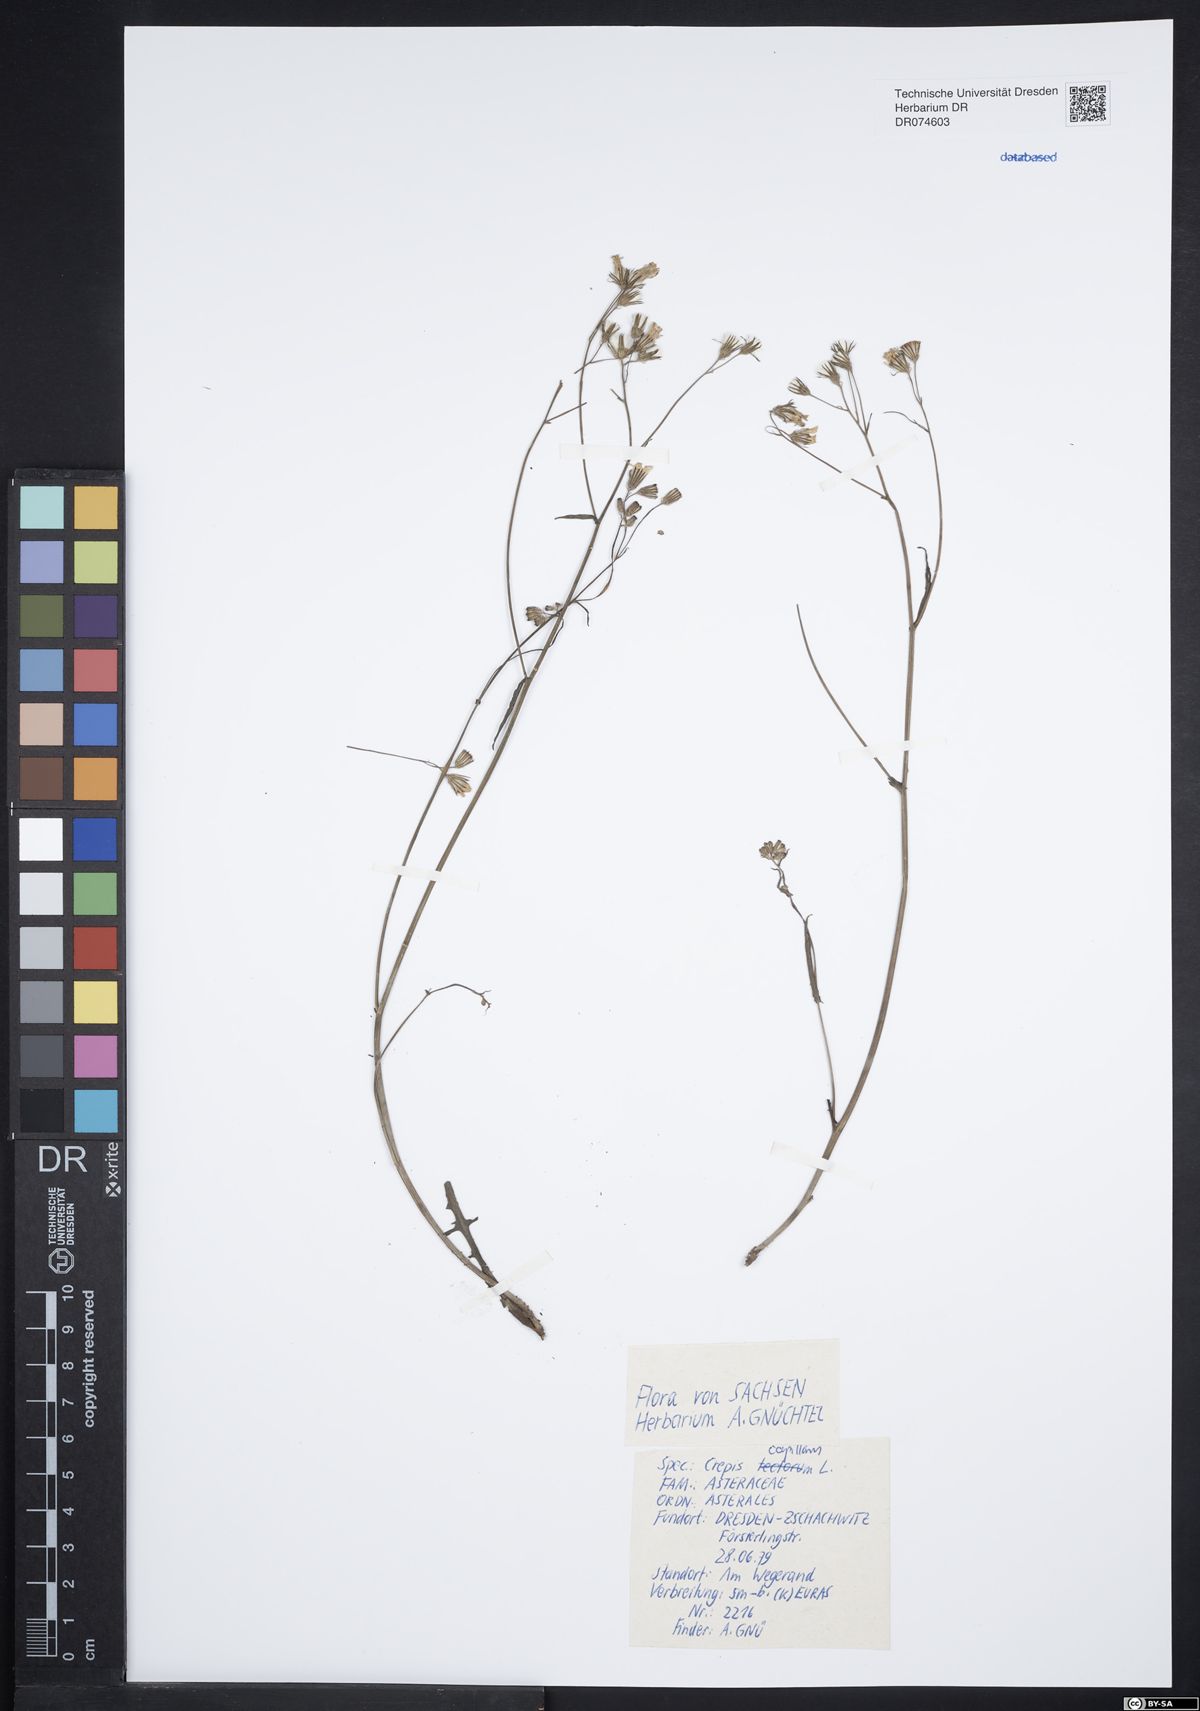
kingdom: Plantae
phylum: Tracheophyta
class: Magnoliopsida
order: Asterales
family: Asteraceae
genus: Crepis
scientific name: Crepis capillaris
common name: Smooth hawksbeard
